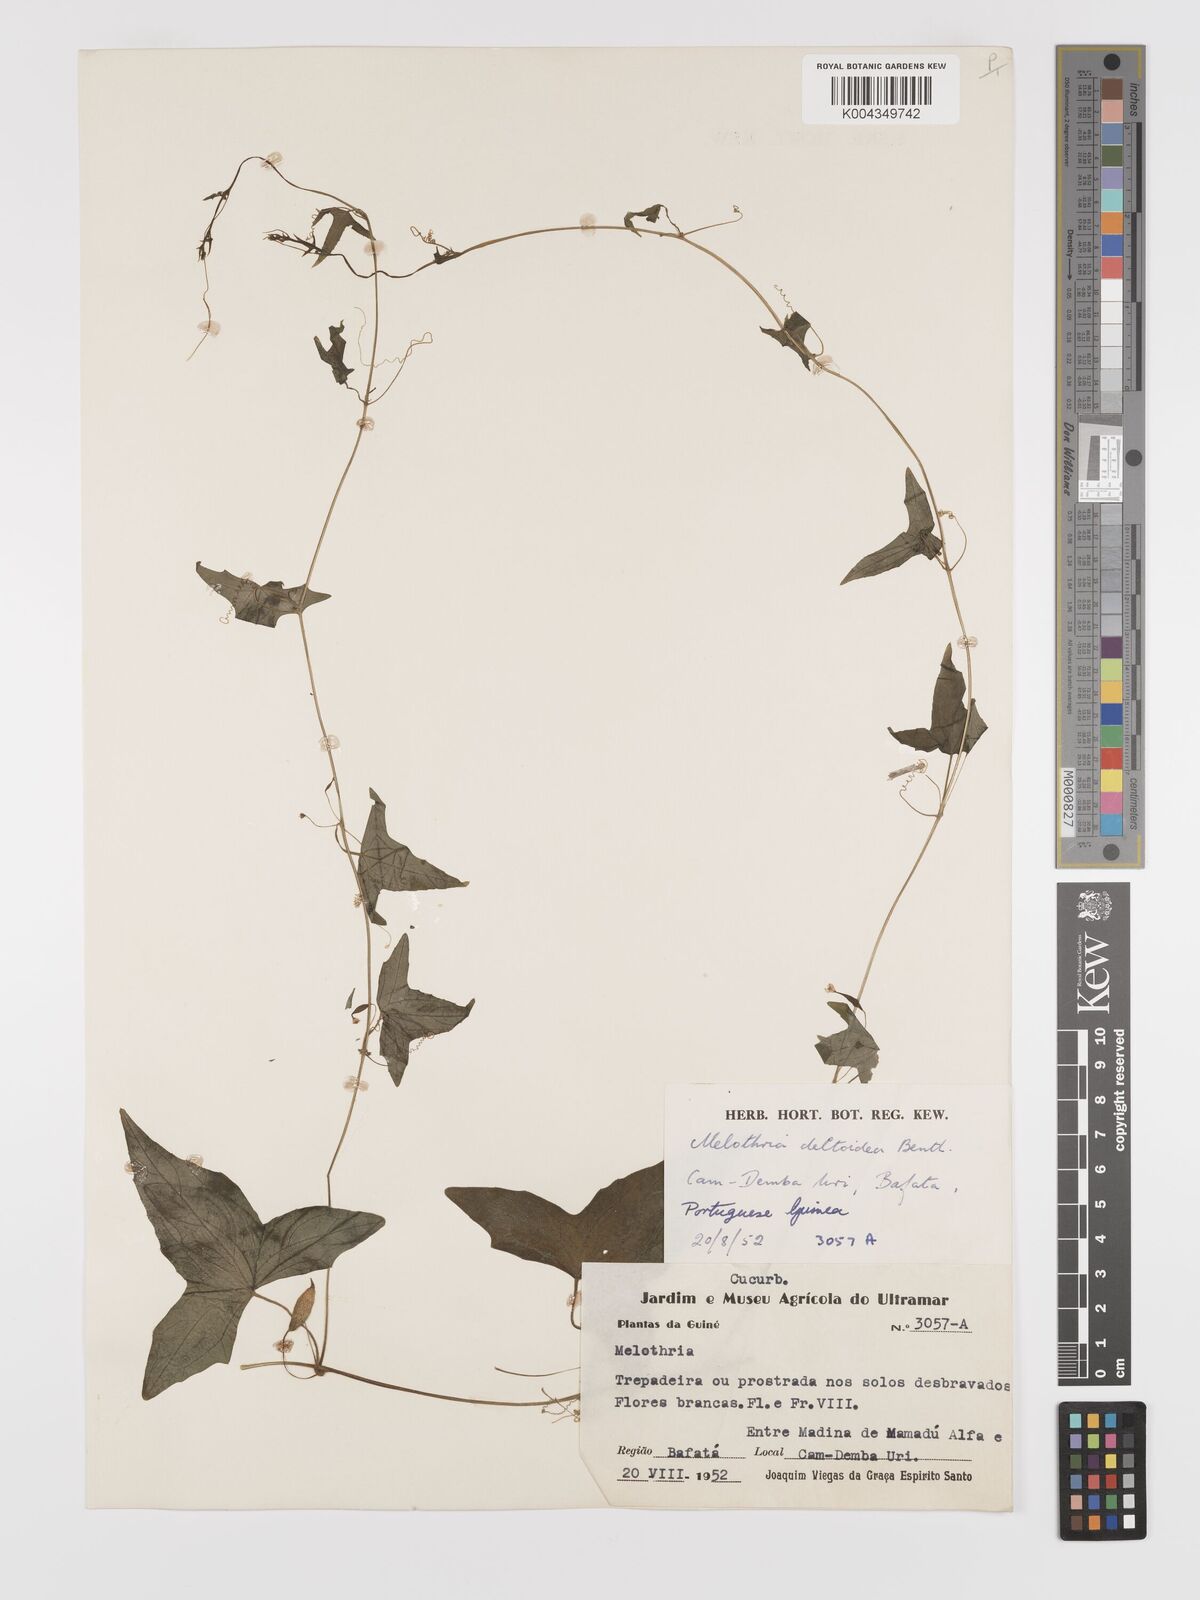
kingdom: Plantae
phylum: Tracheophyta
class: Magnoliopsida
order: Cucurbitales
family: Cucurbitaceae
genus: Zehneria
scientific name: Zehneria thwaitesii
